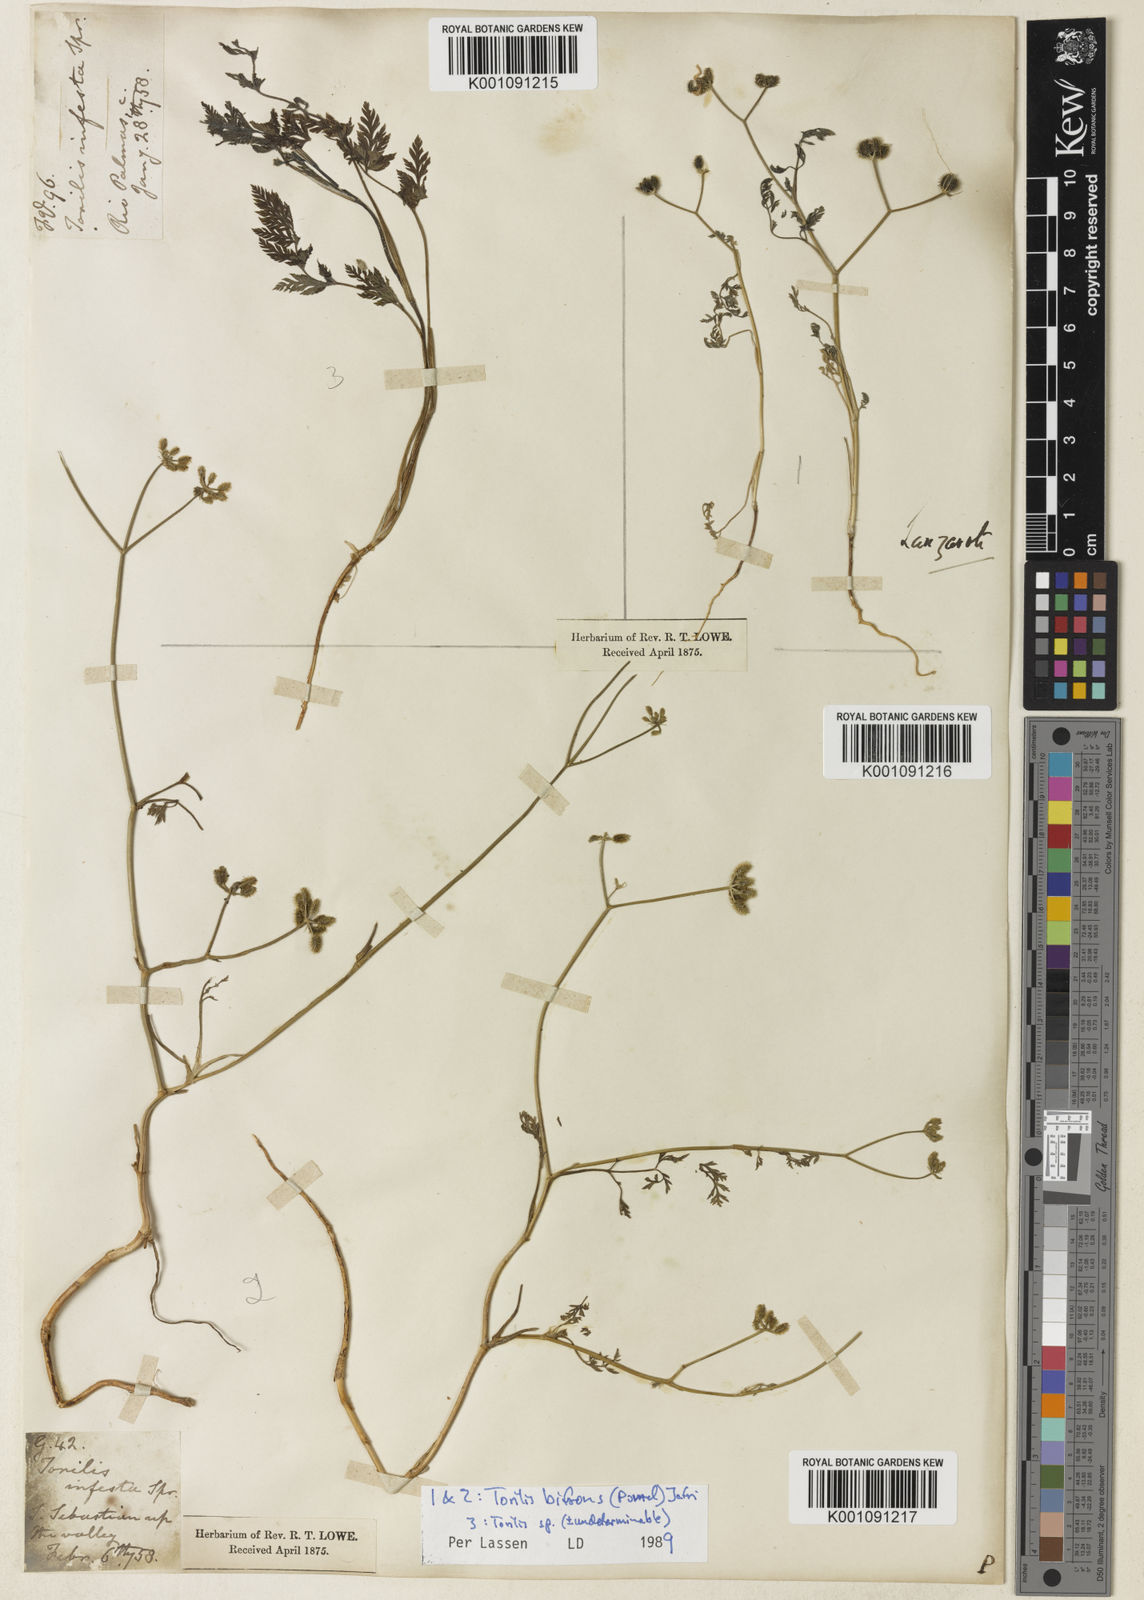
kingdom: Plantae
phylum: Tracheophyta
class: Magnoliopsida
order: Apiales
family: Apiaceae
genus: Torilis
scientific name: Torilis elongata
